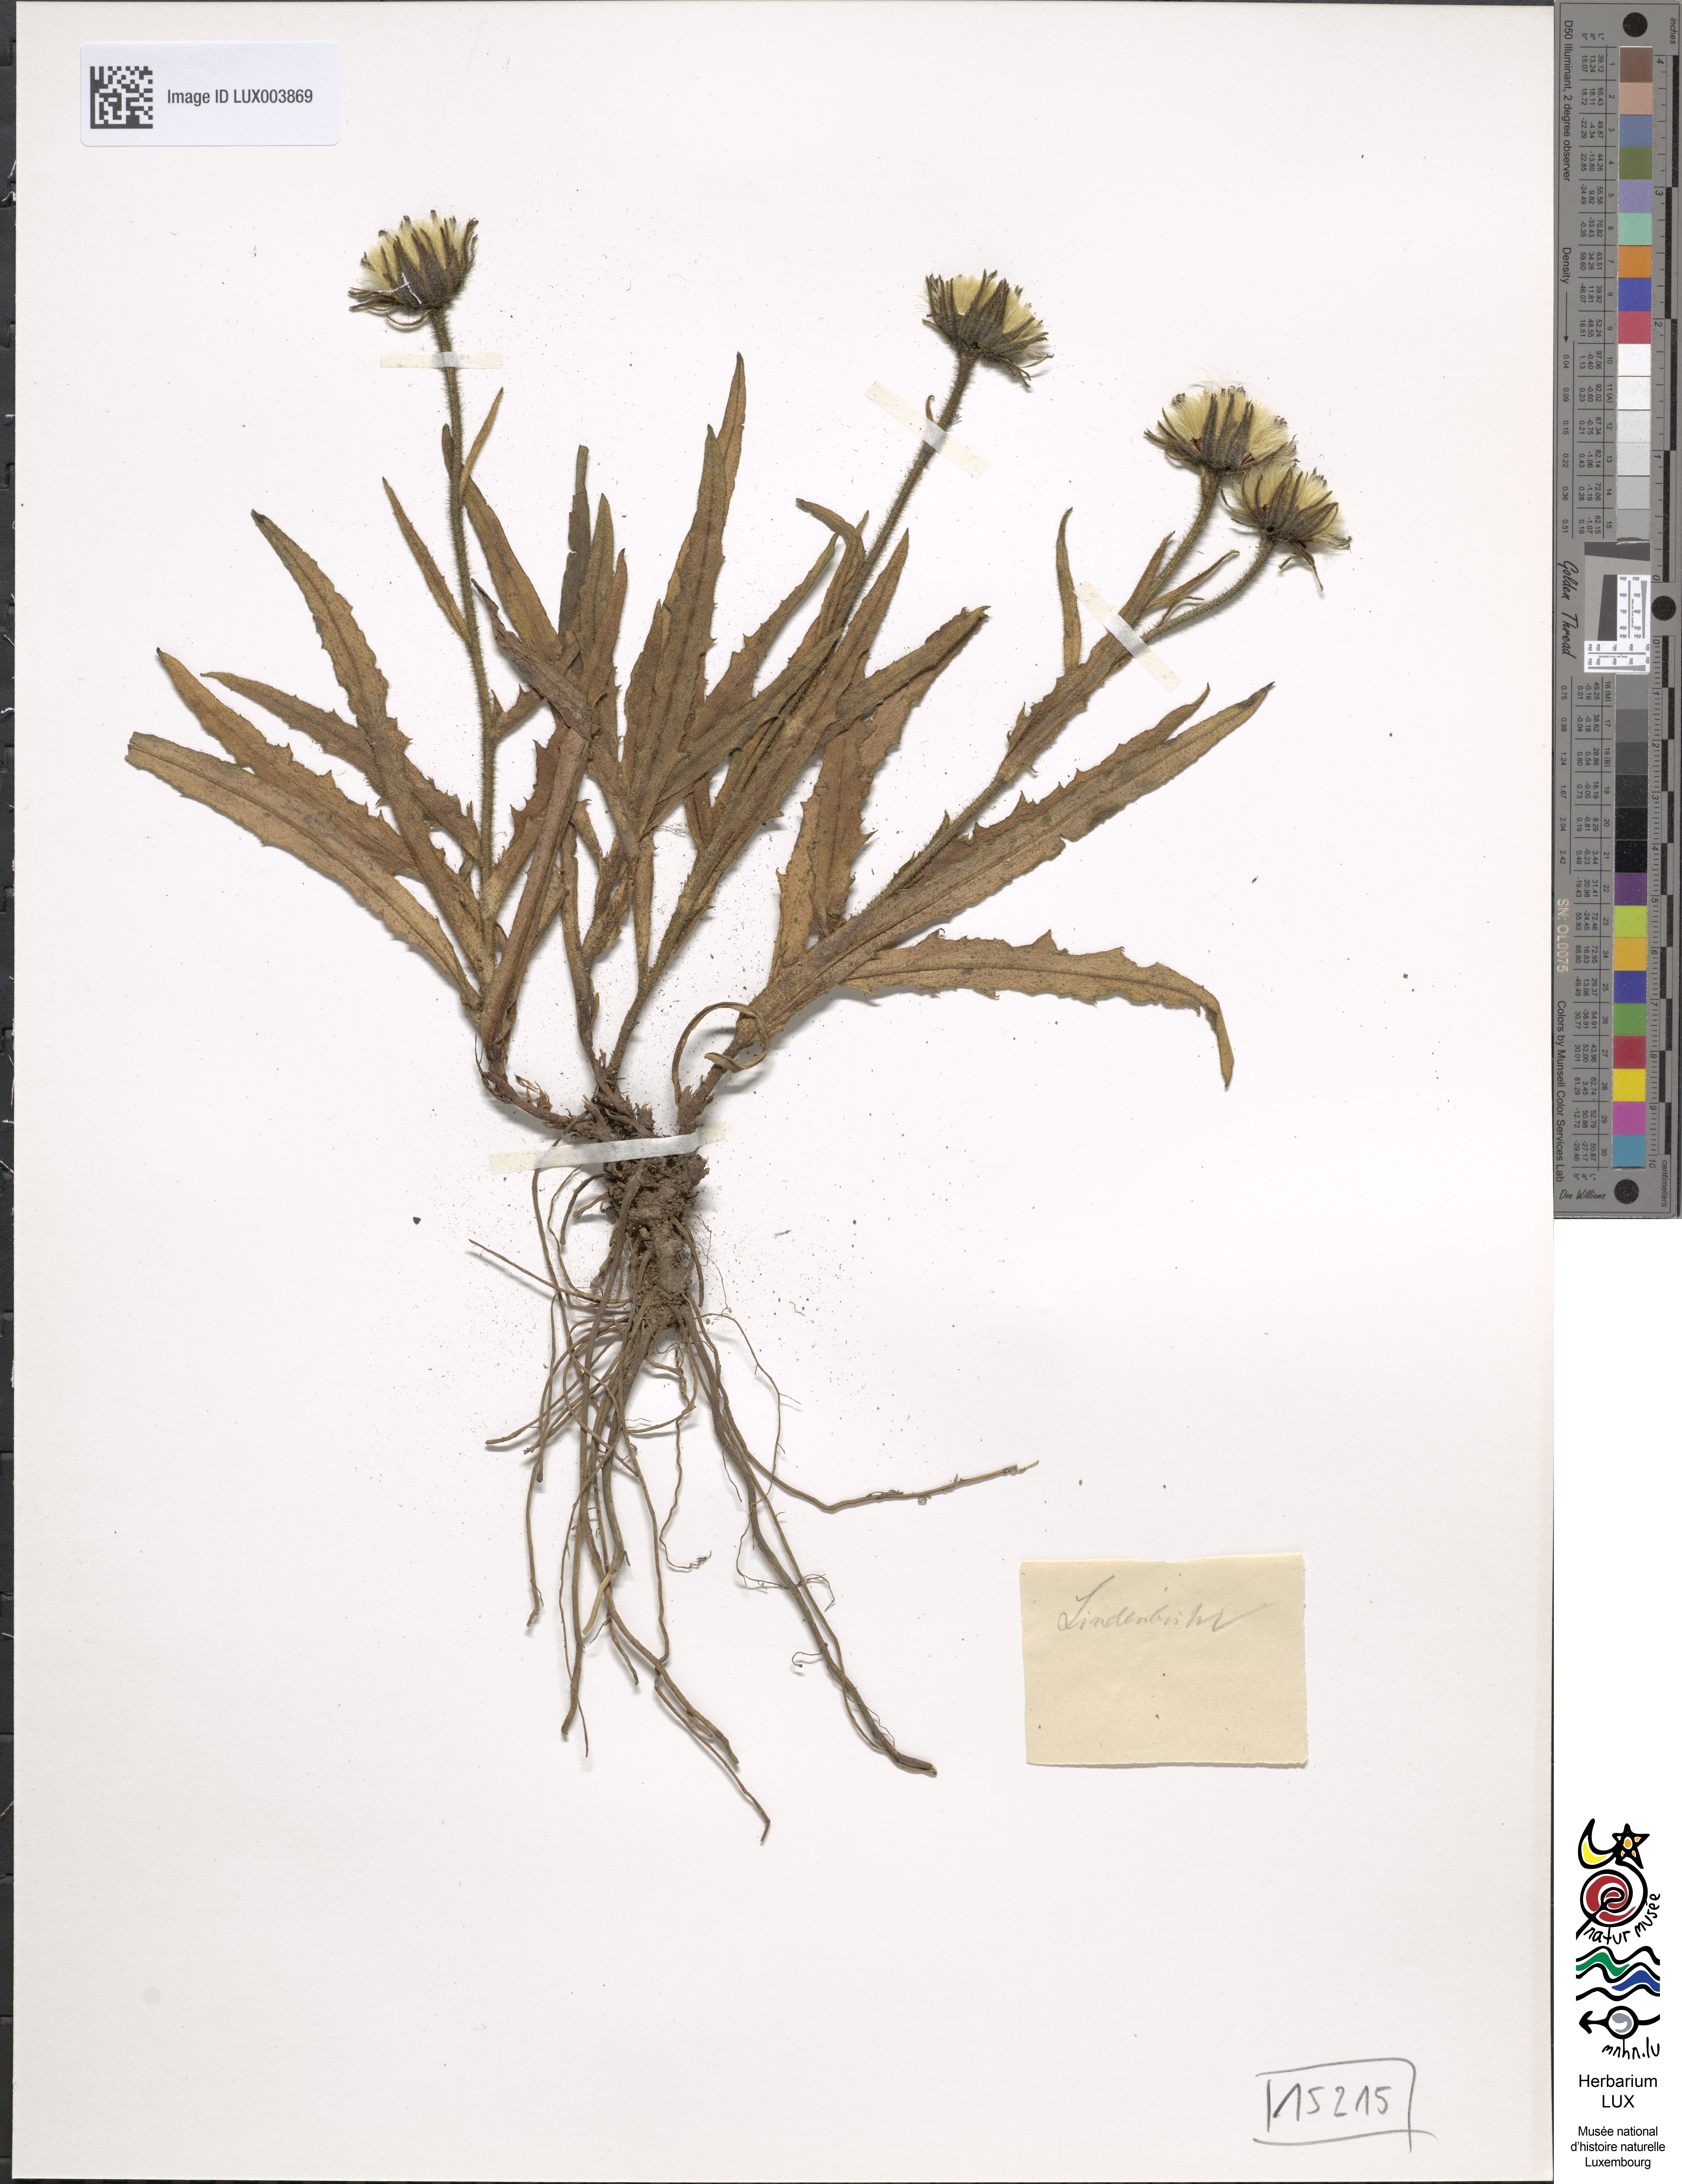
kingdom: Plantae
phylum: Tracheophyta
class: Magnoliopsida
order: Asterales
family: Asteraceae
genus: Schlagintweitia
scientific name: Schlagintweitia intybacea
